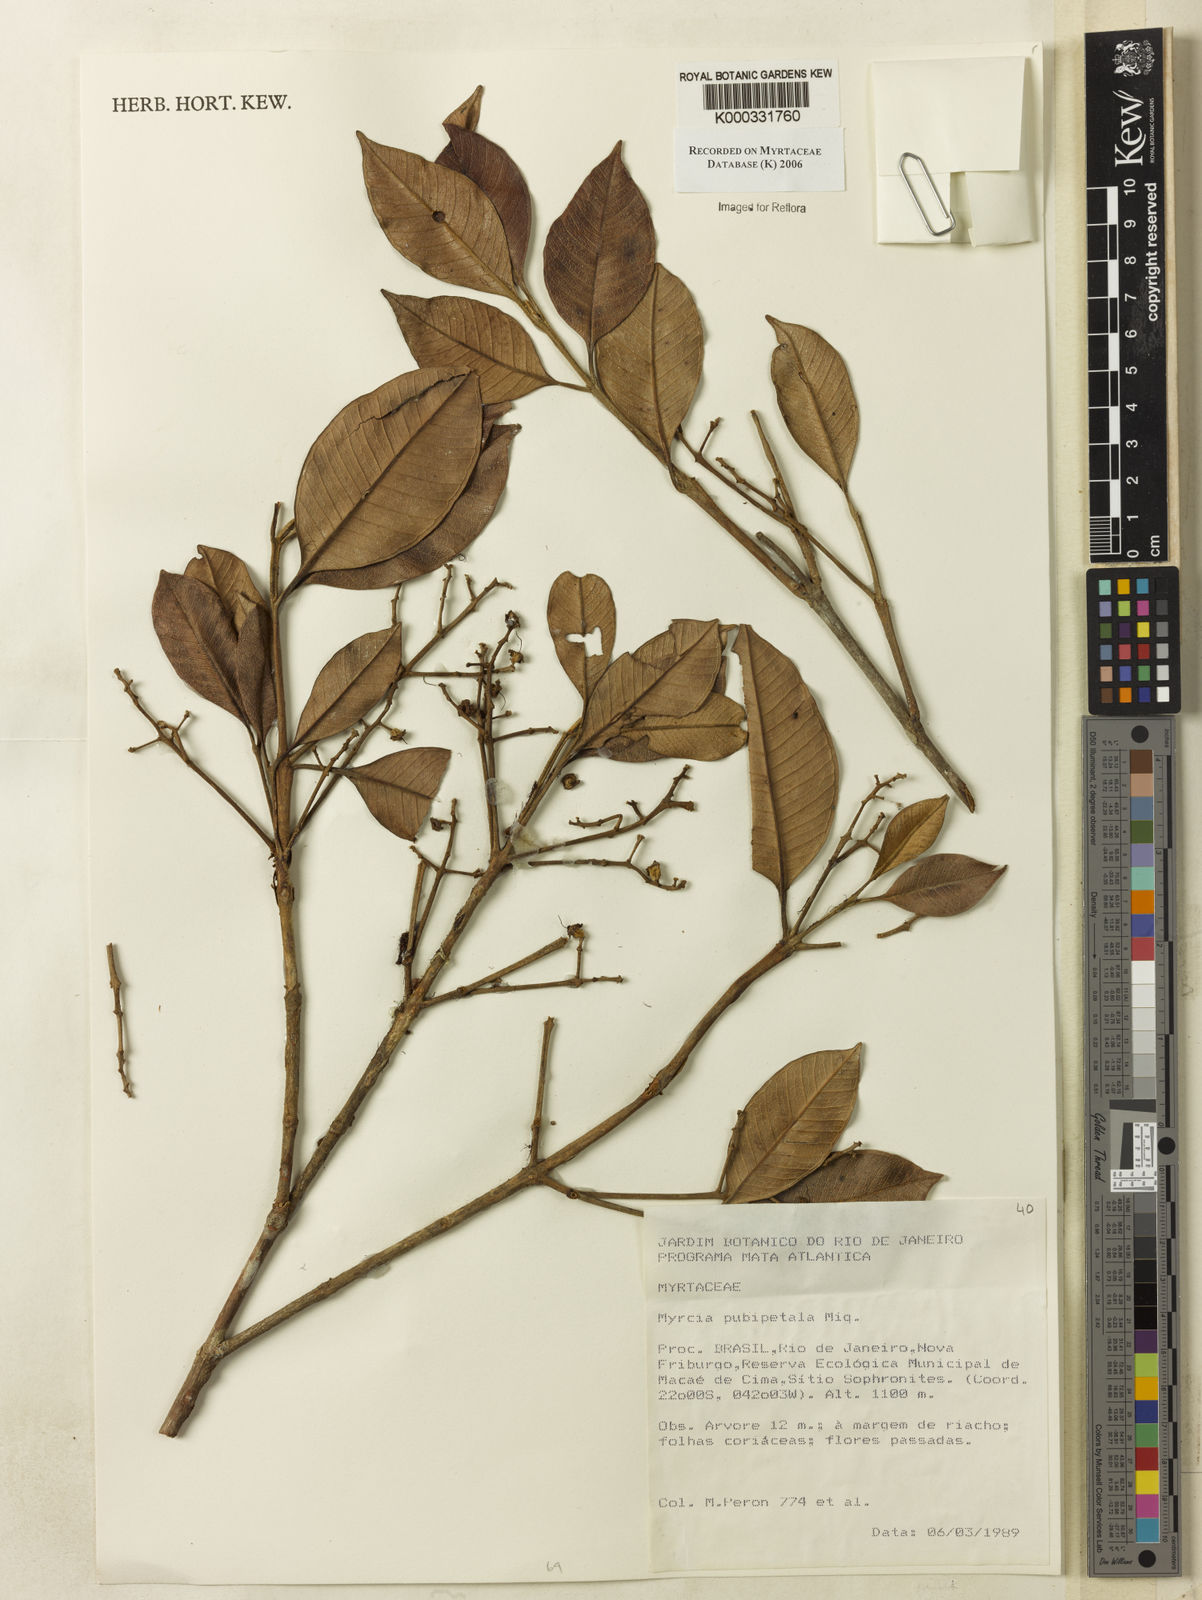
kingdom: Plantae
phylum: Tracheophyta
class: Magnoliopsida
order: Myrtales
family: Myrtaceae
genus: Myrcia
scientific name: Myrcia pubipetala
